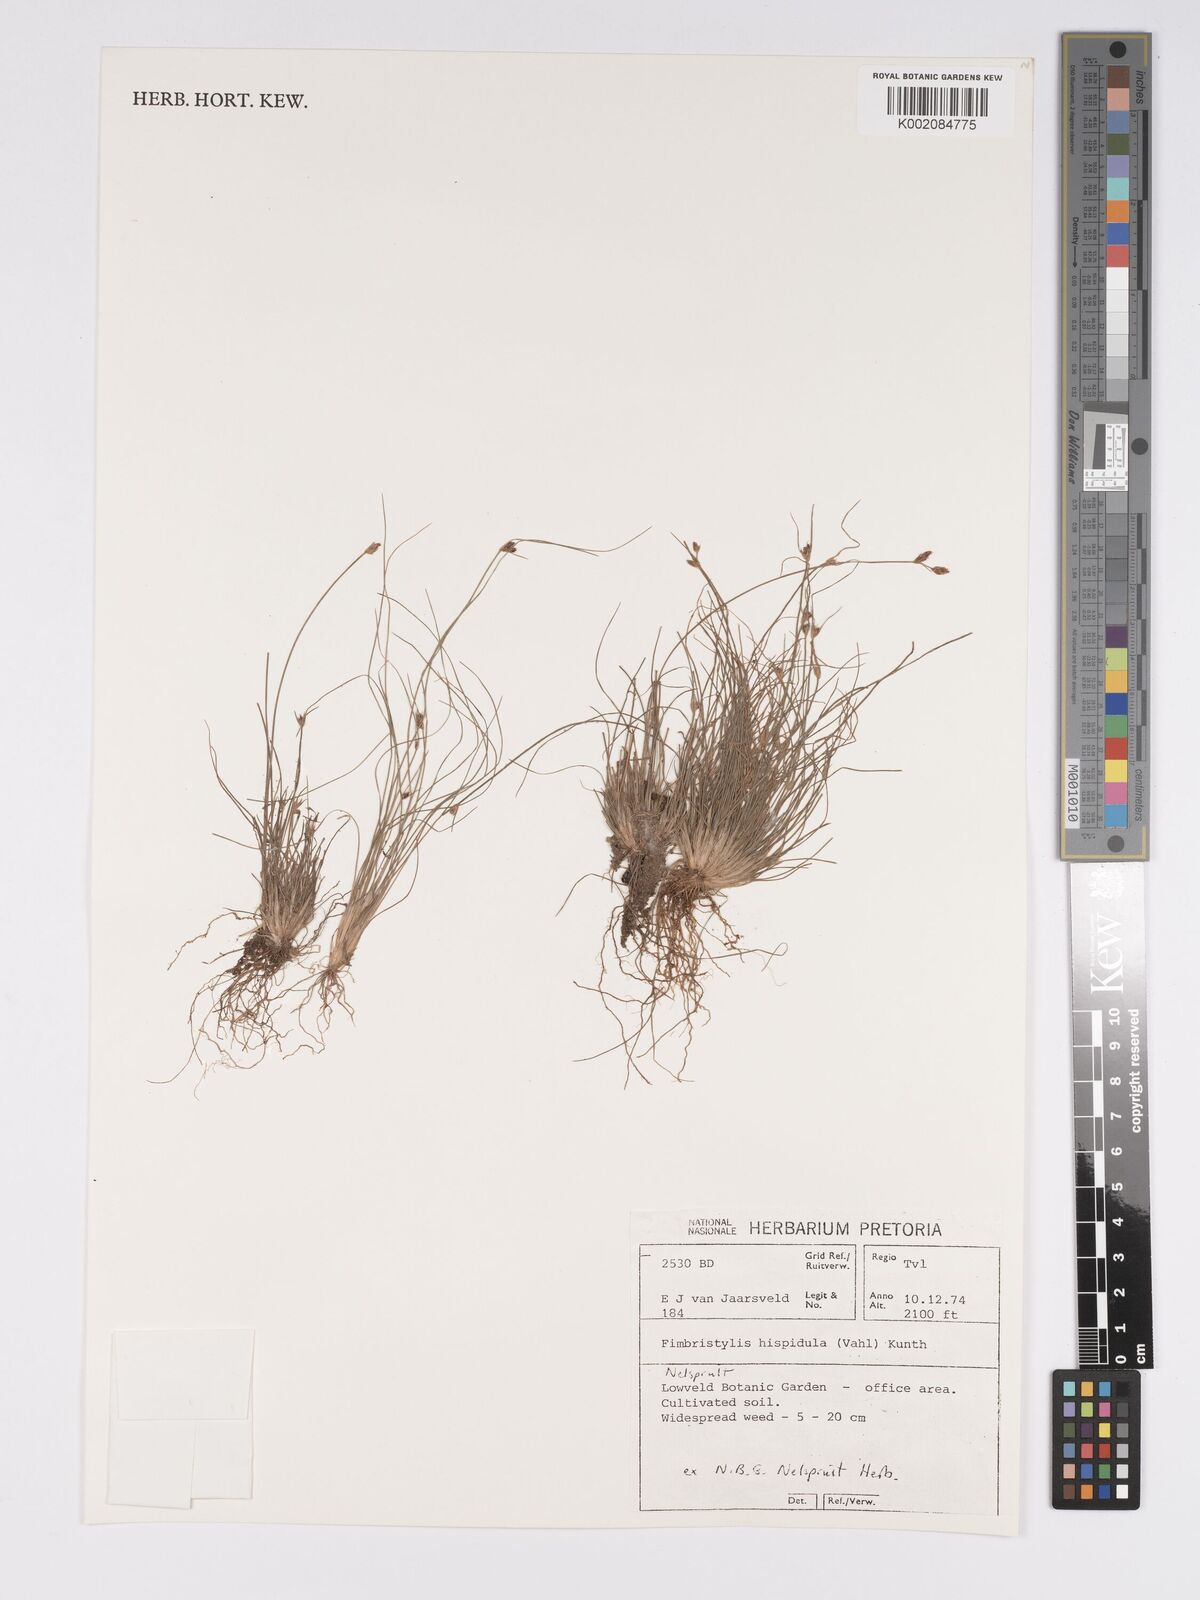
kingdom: Plantae
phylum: Tracheophyta
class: Liliopsida
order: Poales
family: Cyperaceae
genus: Bulbostylis
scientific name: Bulbostylis hispidula
